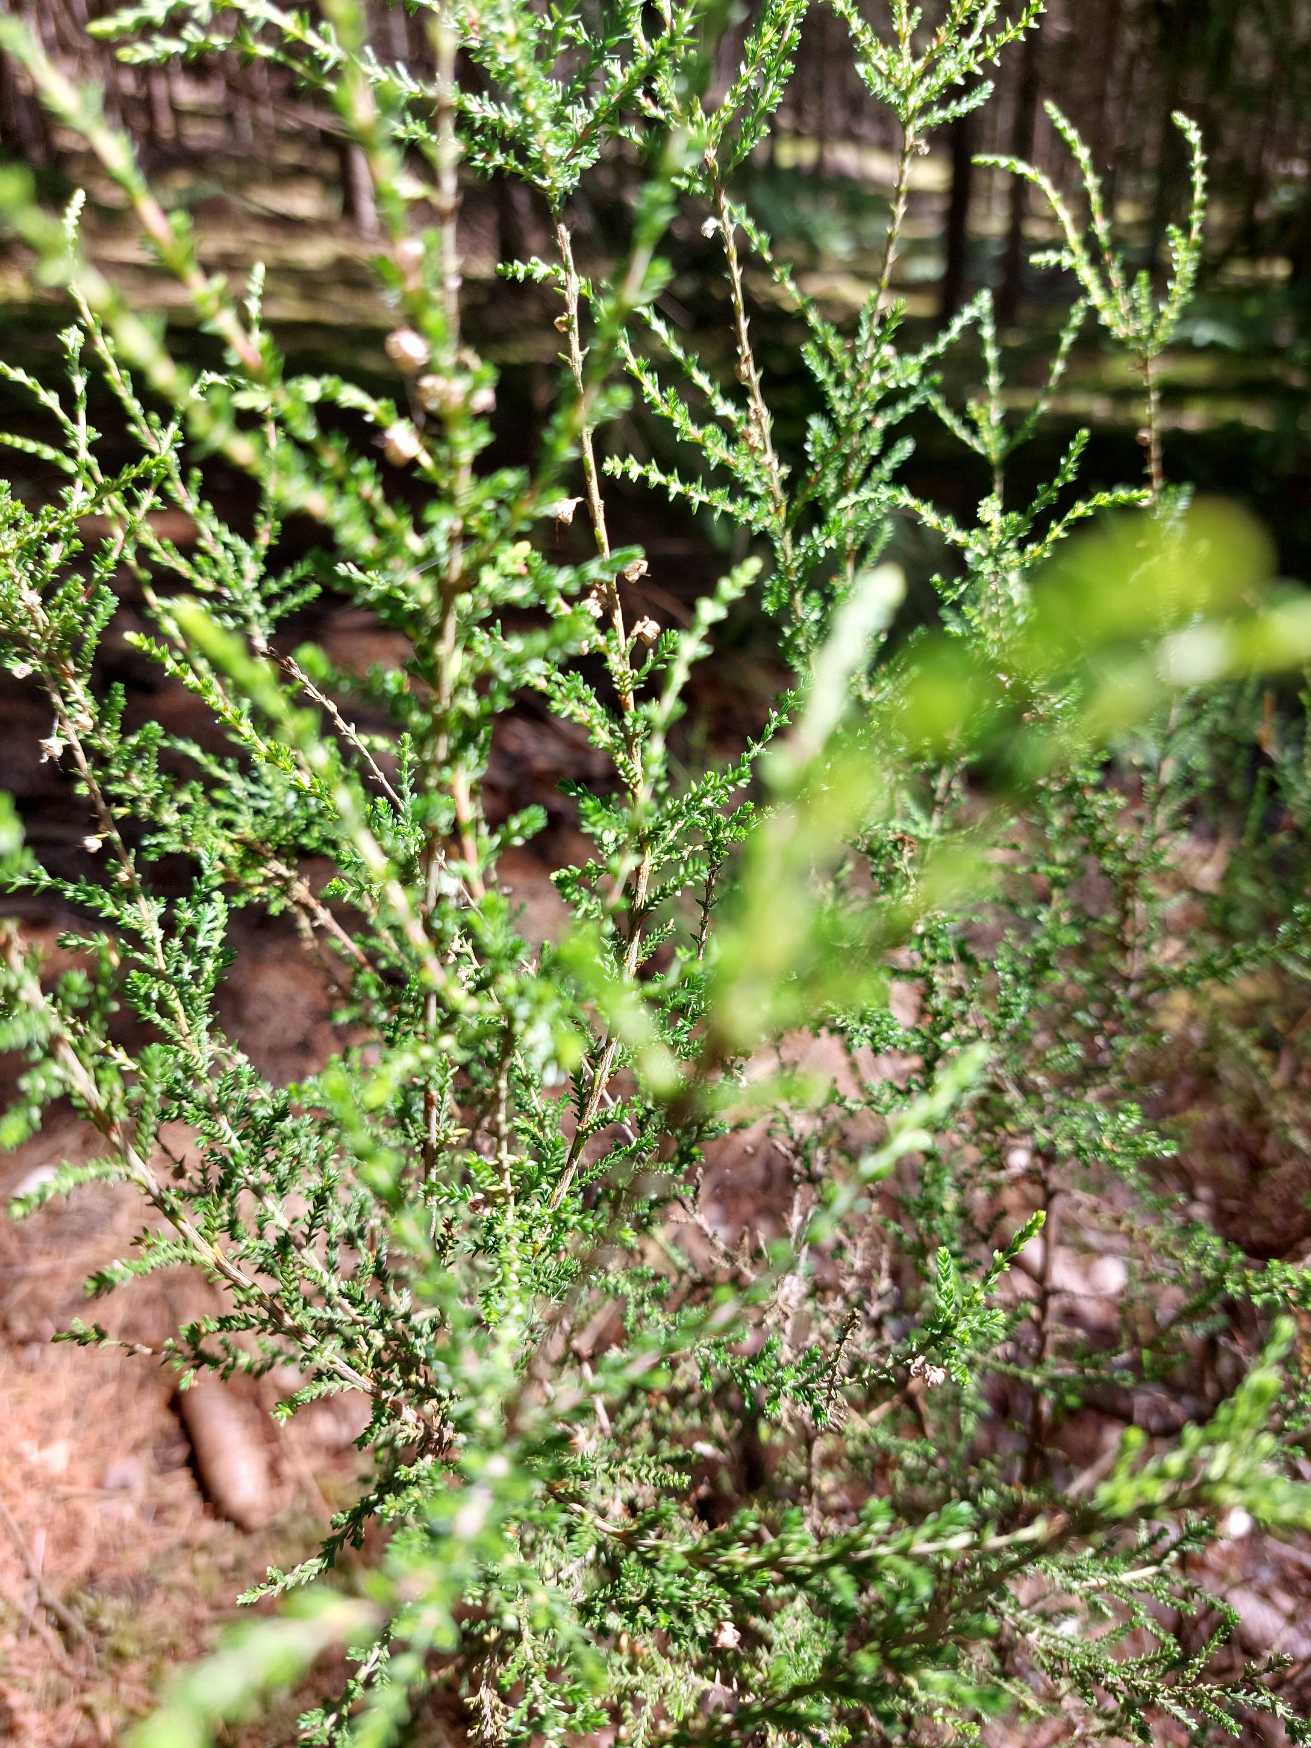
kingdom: Plantae
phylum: Tracheophyta
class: Magnoliopsida
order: Ericales
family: Ericaceae
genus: Calluna
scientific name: Calluna vulgaris
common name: Hedelyng
